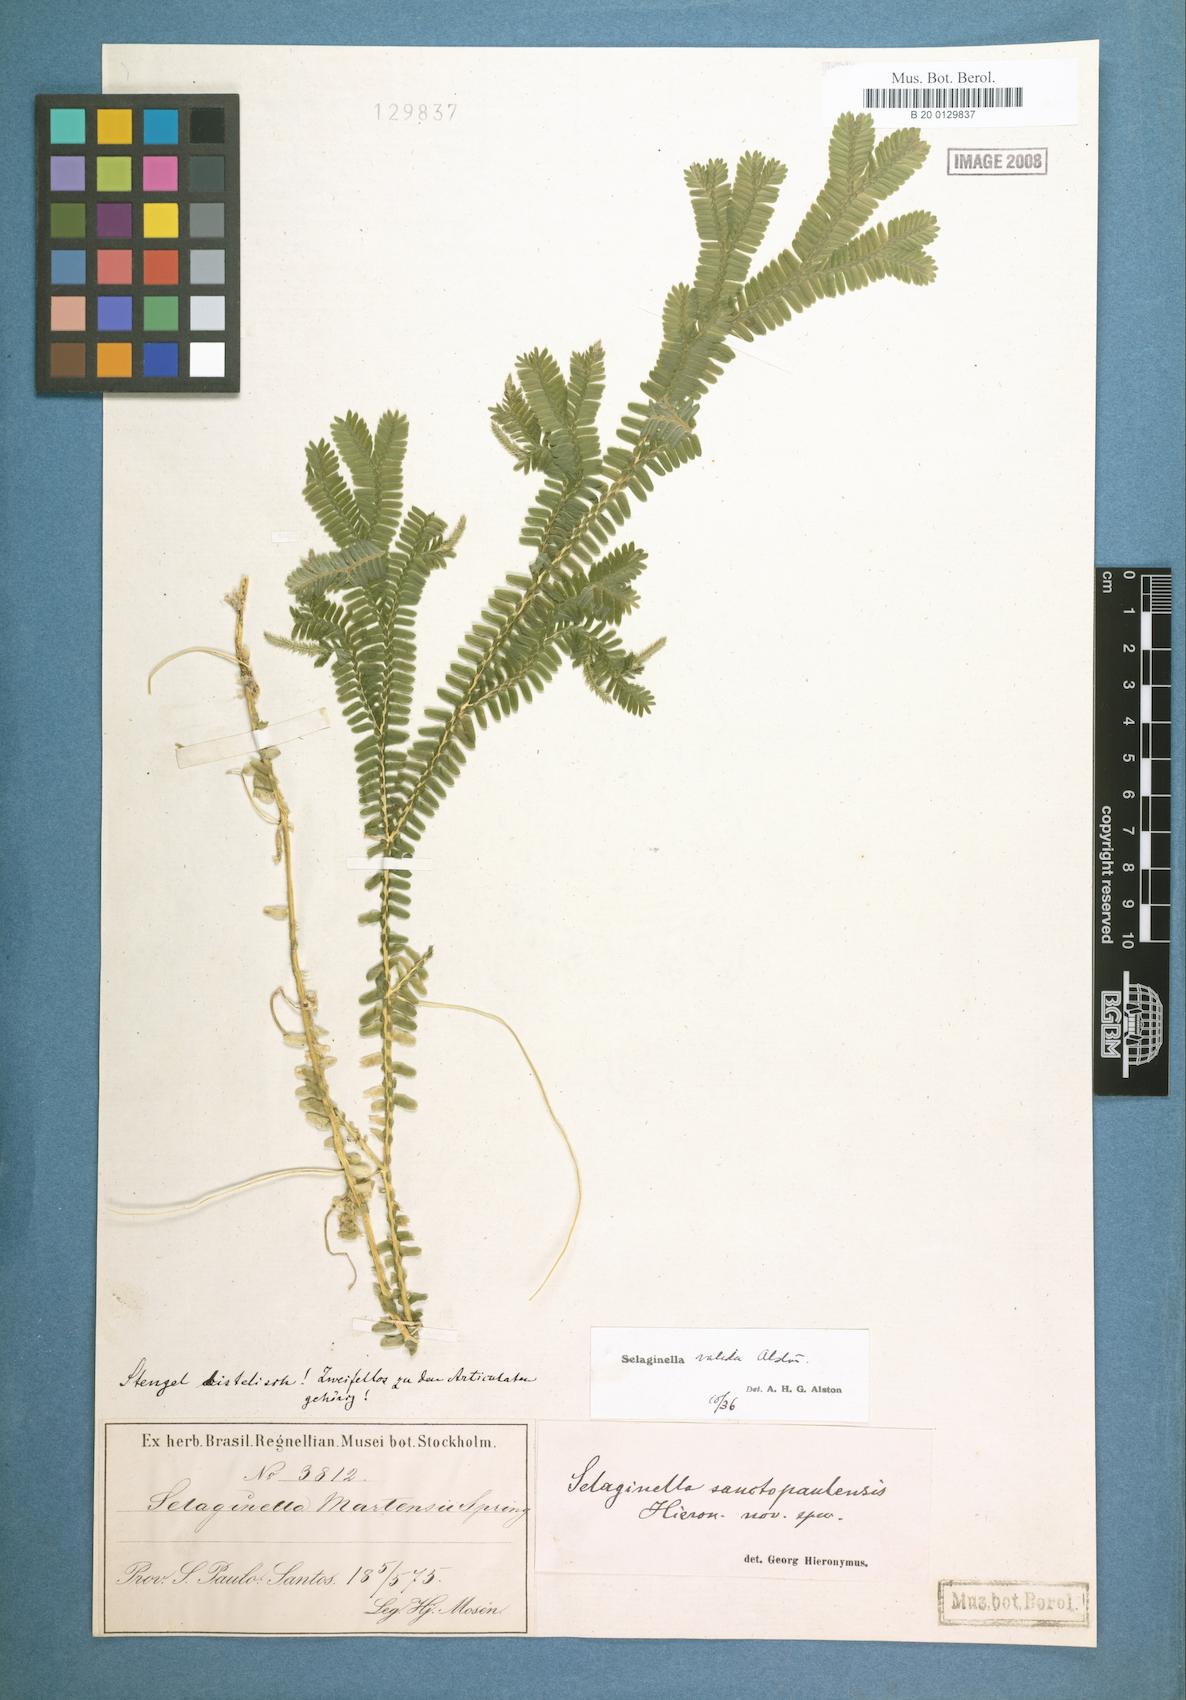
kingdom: Plantae
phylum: Tracheophyta
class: Lycopodiopsida
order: Selaginellales
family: Selaginellaceae
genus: Selaginella
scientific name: Selaginella valida
